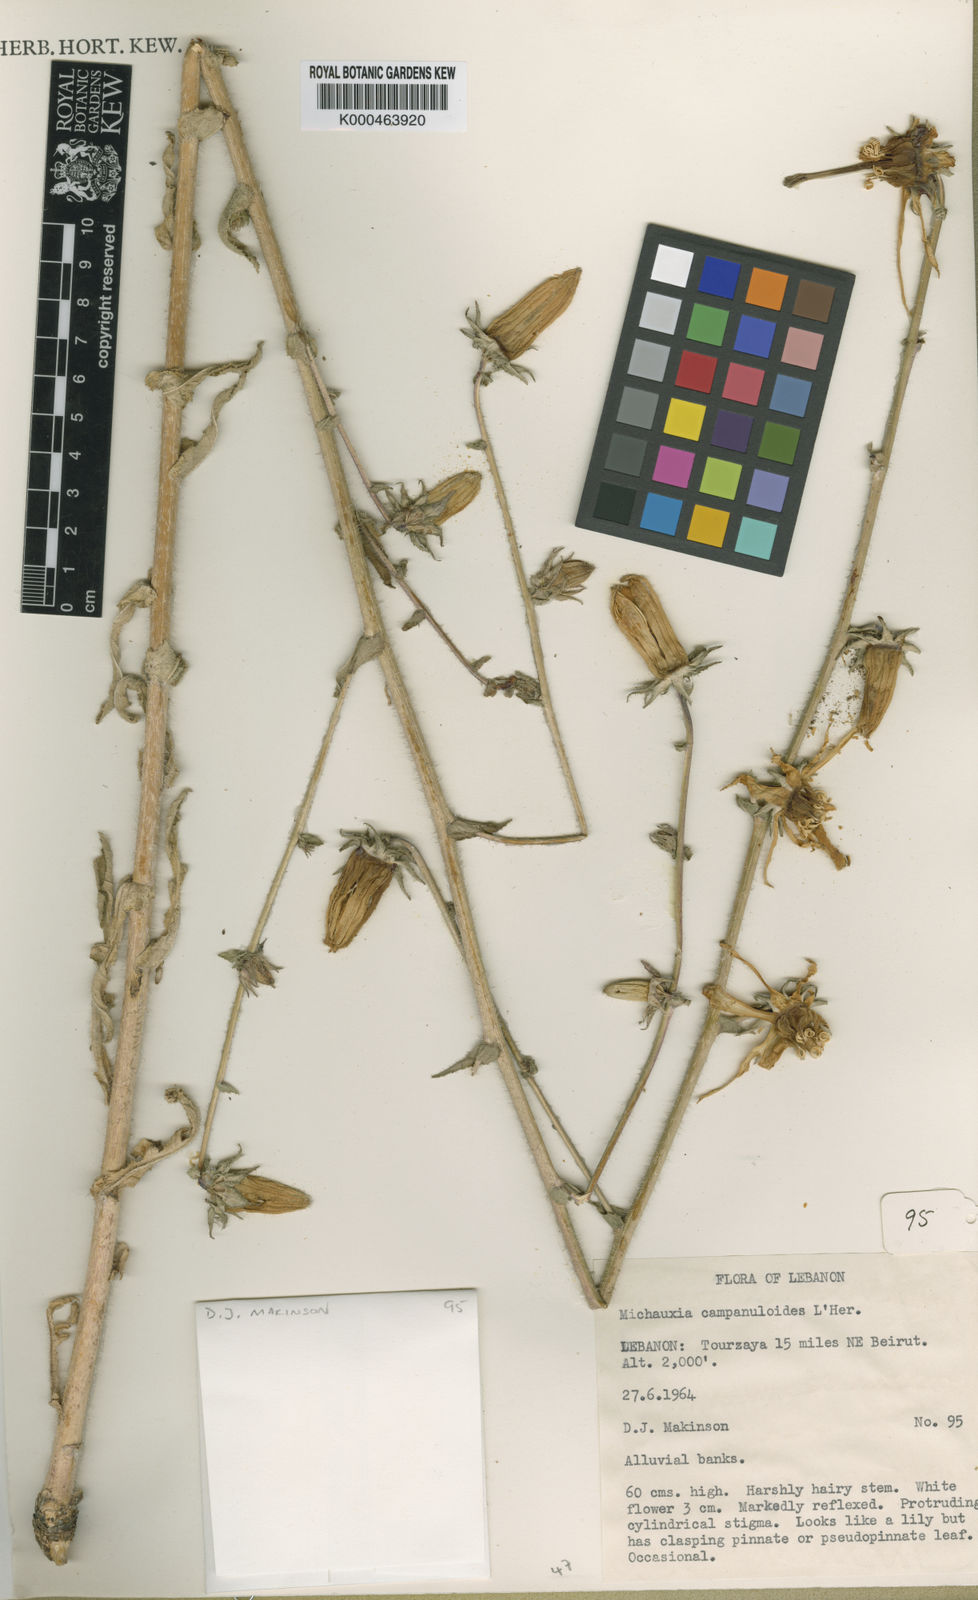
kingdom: Plantae
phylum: Tracheophyta
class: Magnoliopsida
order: Asterales
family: Campanulaceae
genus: Michauxia
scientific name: Michauxia
